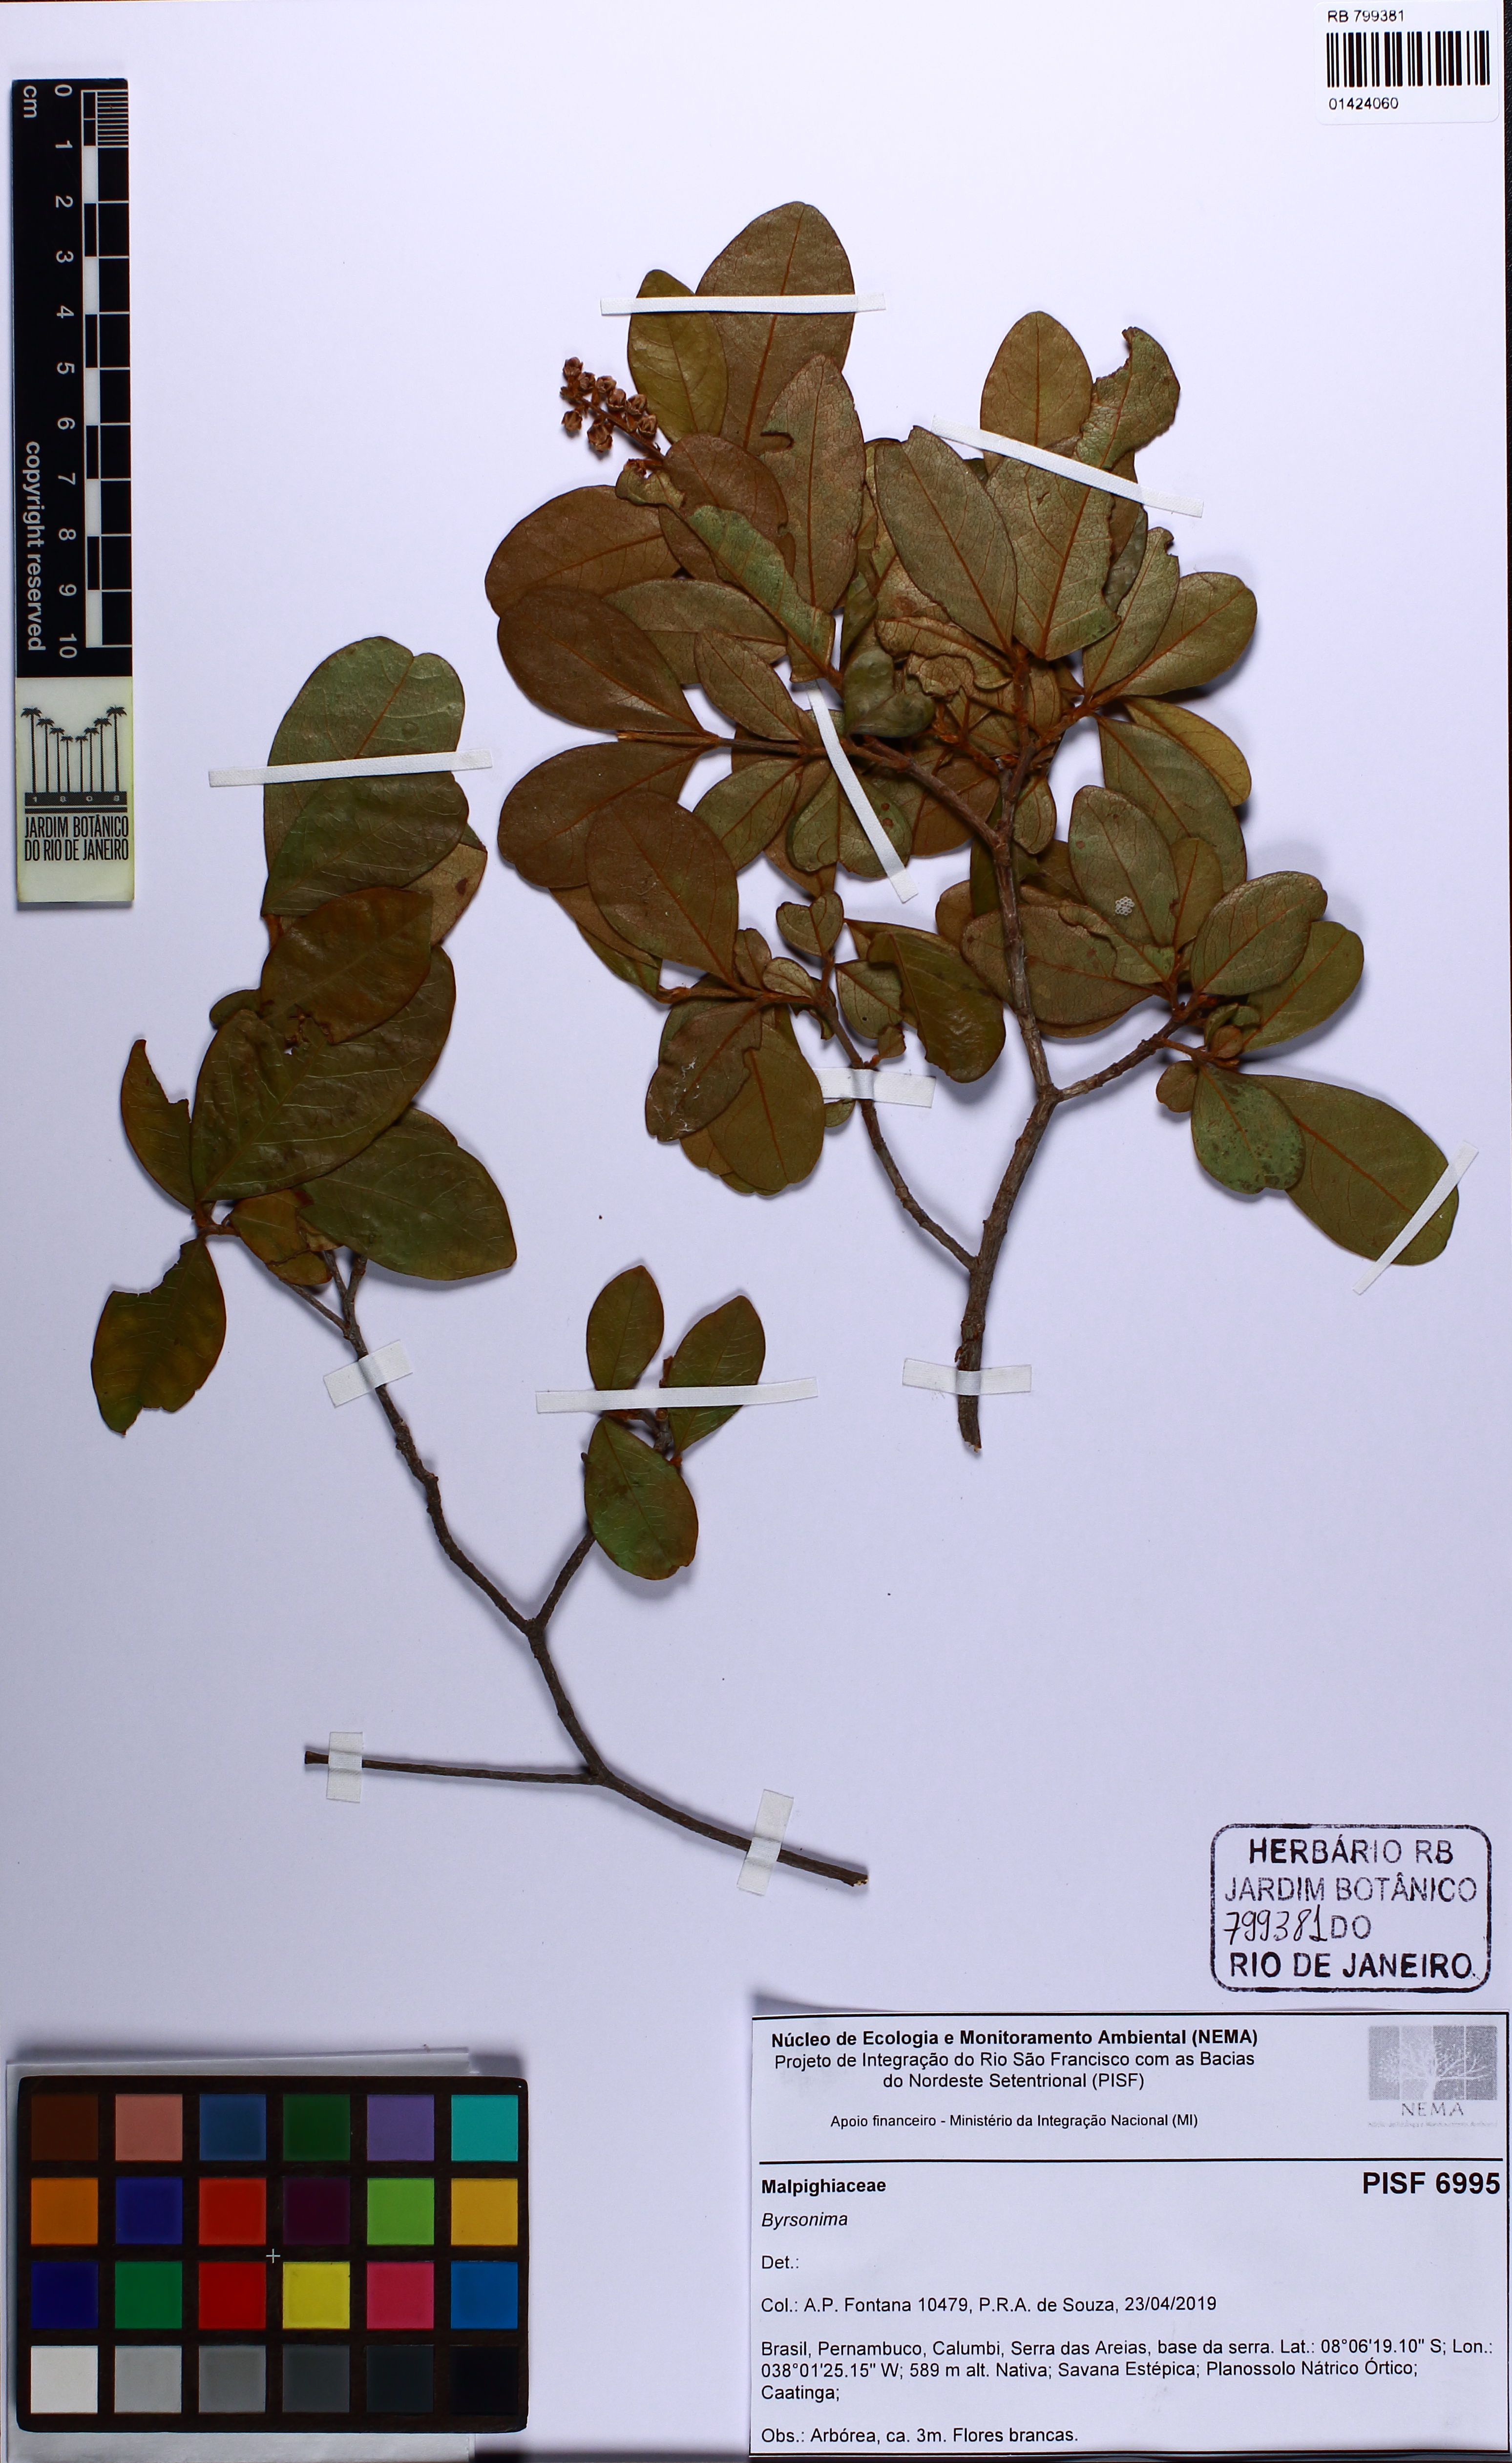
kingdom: Plantae
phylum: Tracheophyta
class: Magnoliopsida
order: Malpighiales
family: Malpighiaceae
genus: Byrsonima
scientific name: Byrsonima
